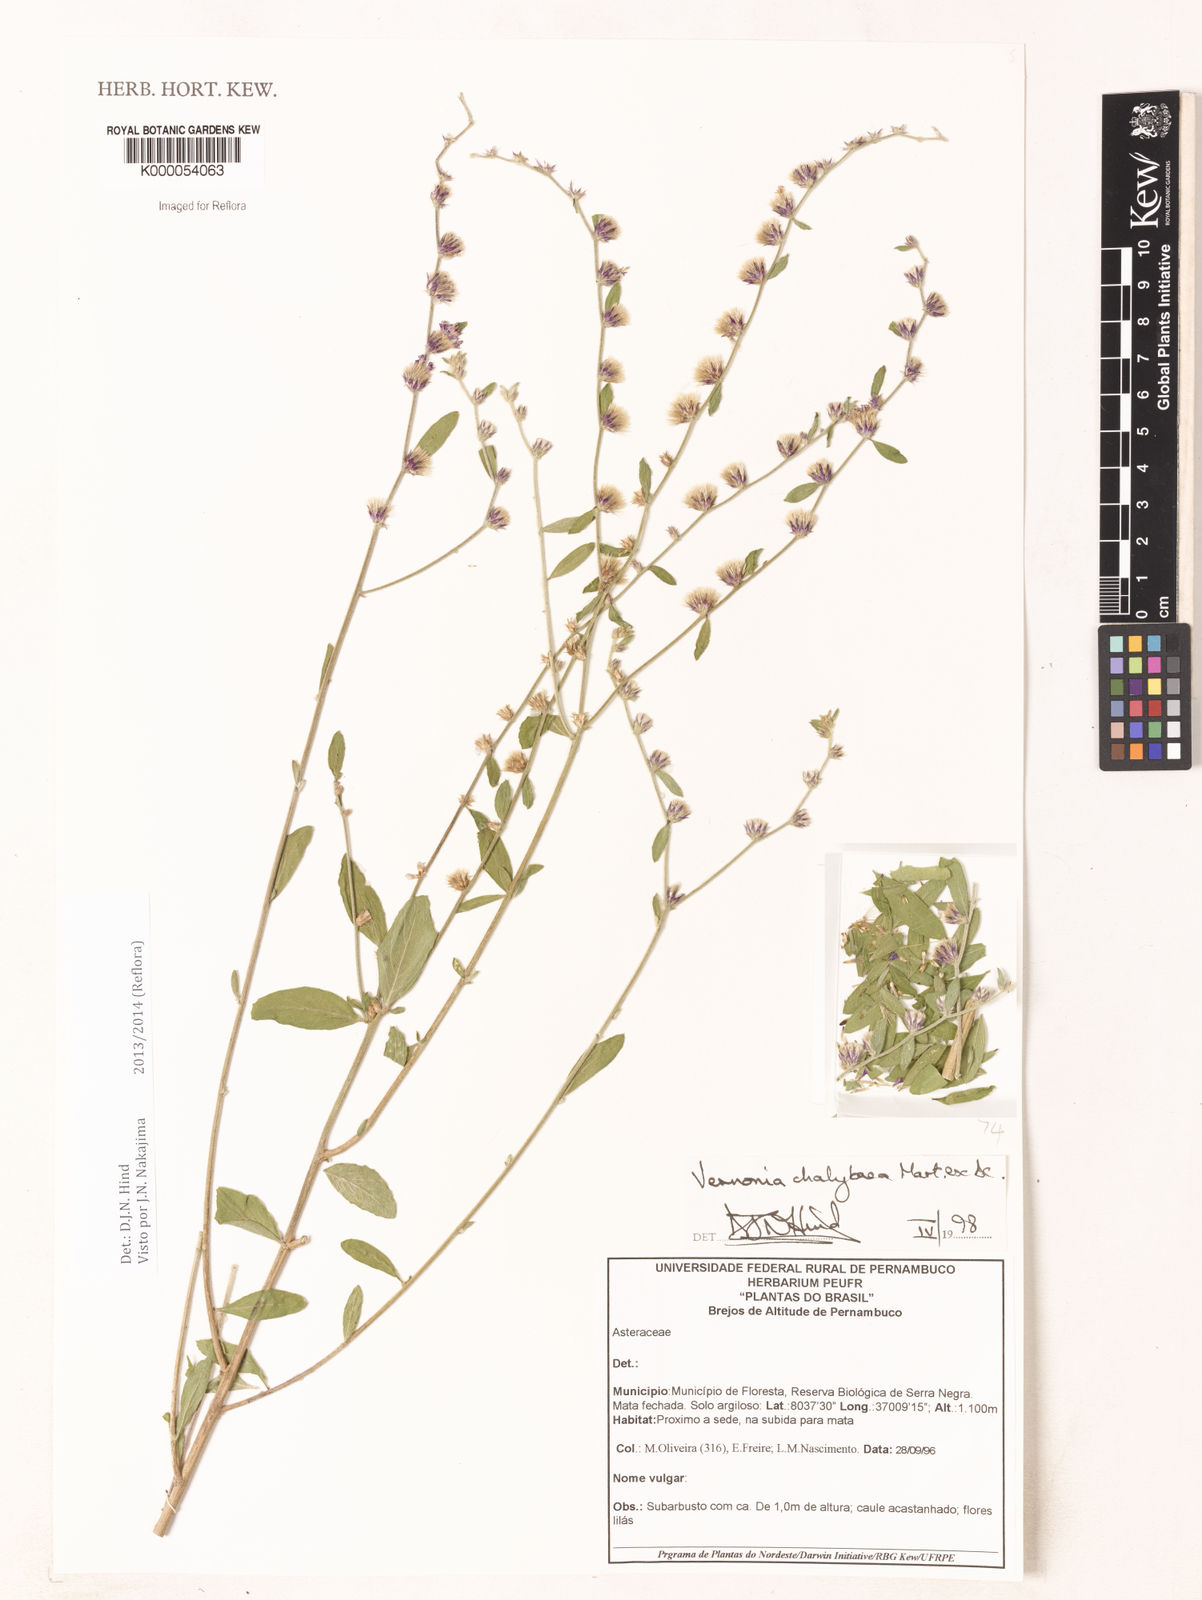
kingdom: Plantae
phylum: Tracheophyta
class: Magnoliopsida
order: Asterales
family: Asteraceae
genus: Lepidaploa
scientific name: Lepidaploa chalybaea
